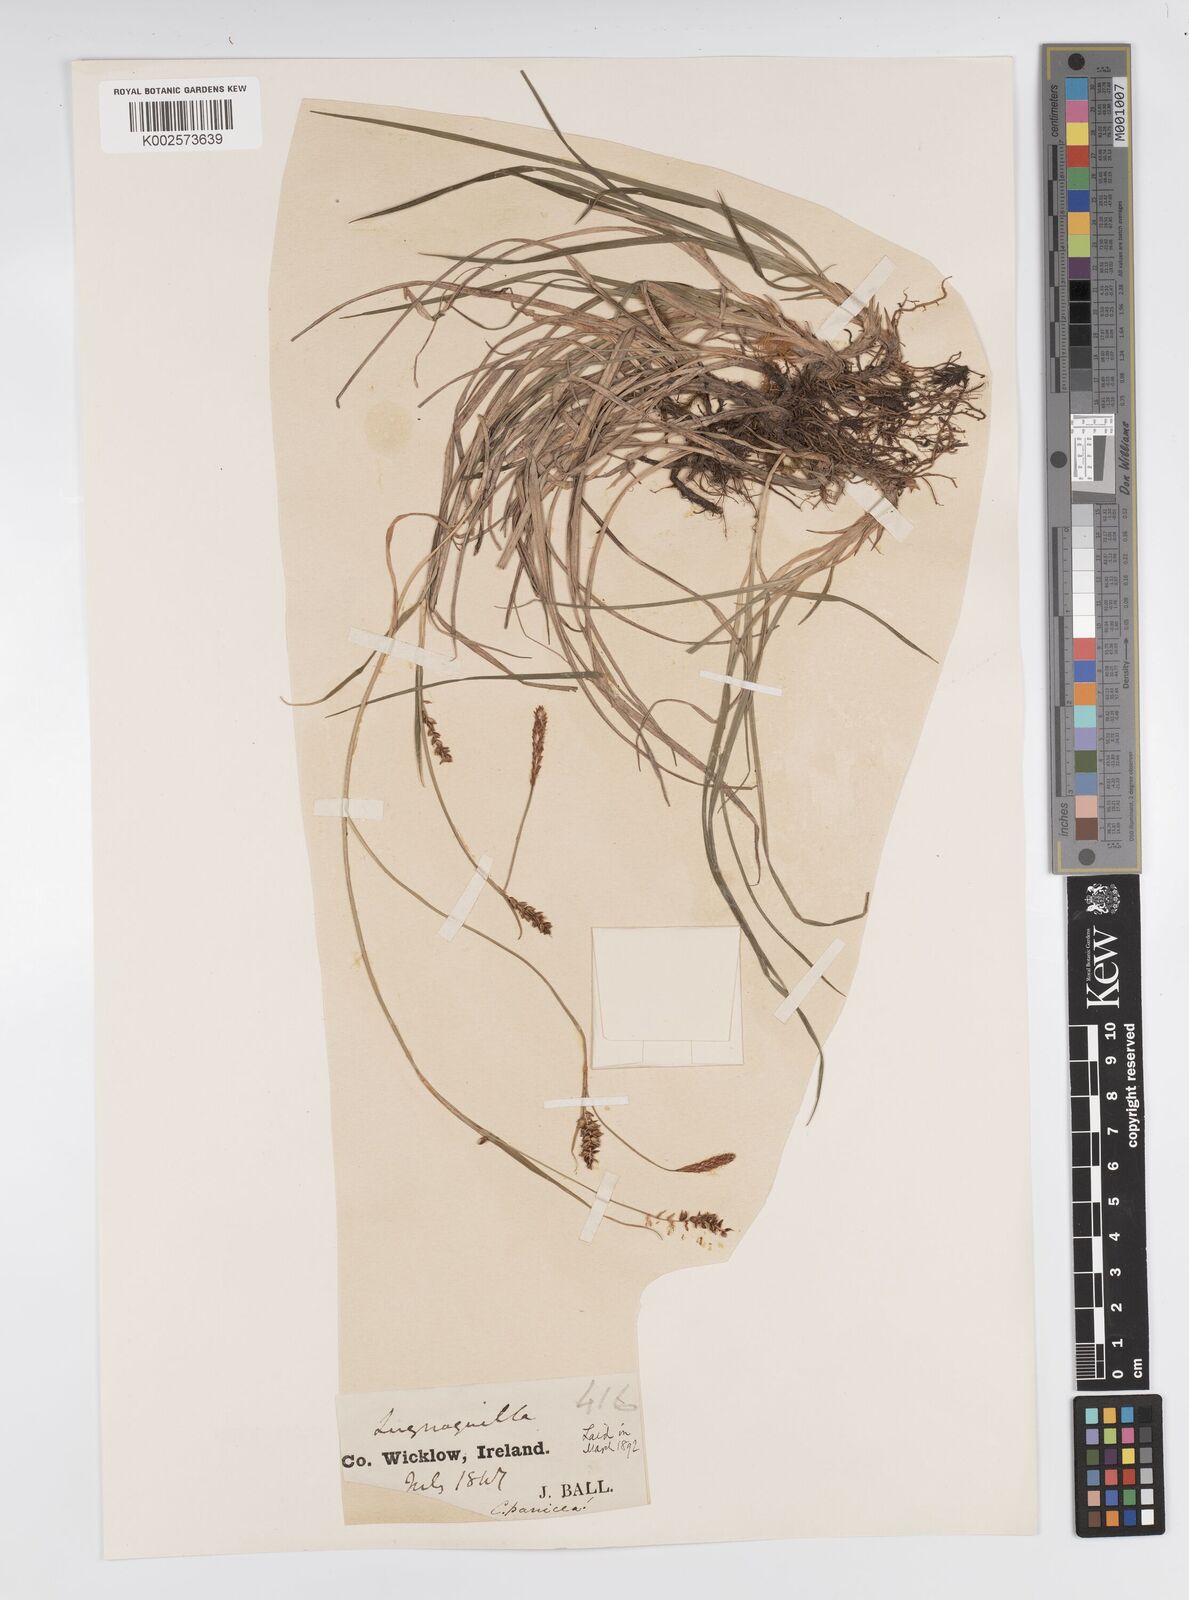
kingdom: Plantae
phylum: Tracheophyta
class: Liliopsida
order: Poales
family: Cyperaceae
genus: Carex
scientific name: Carex panicea
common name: Carnation sedge
